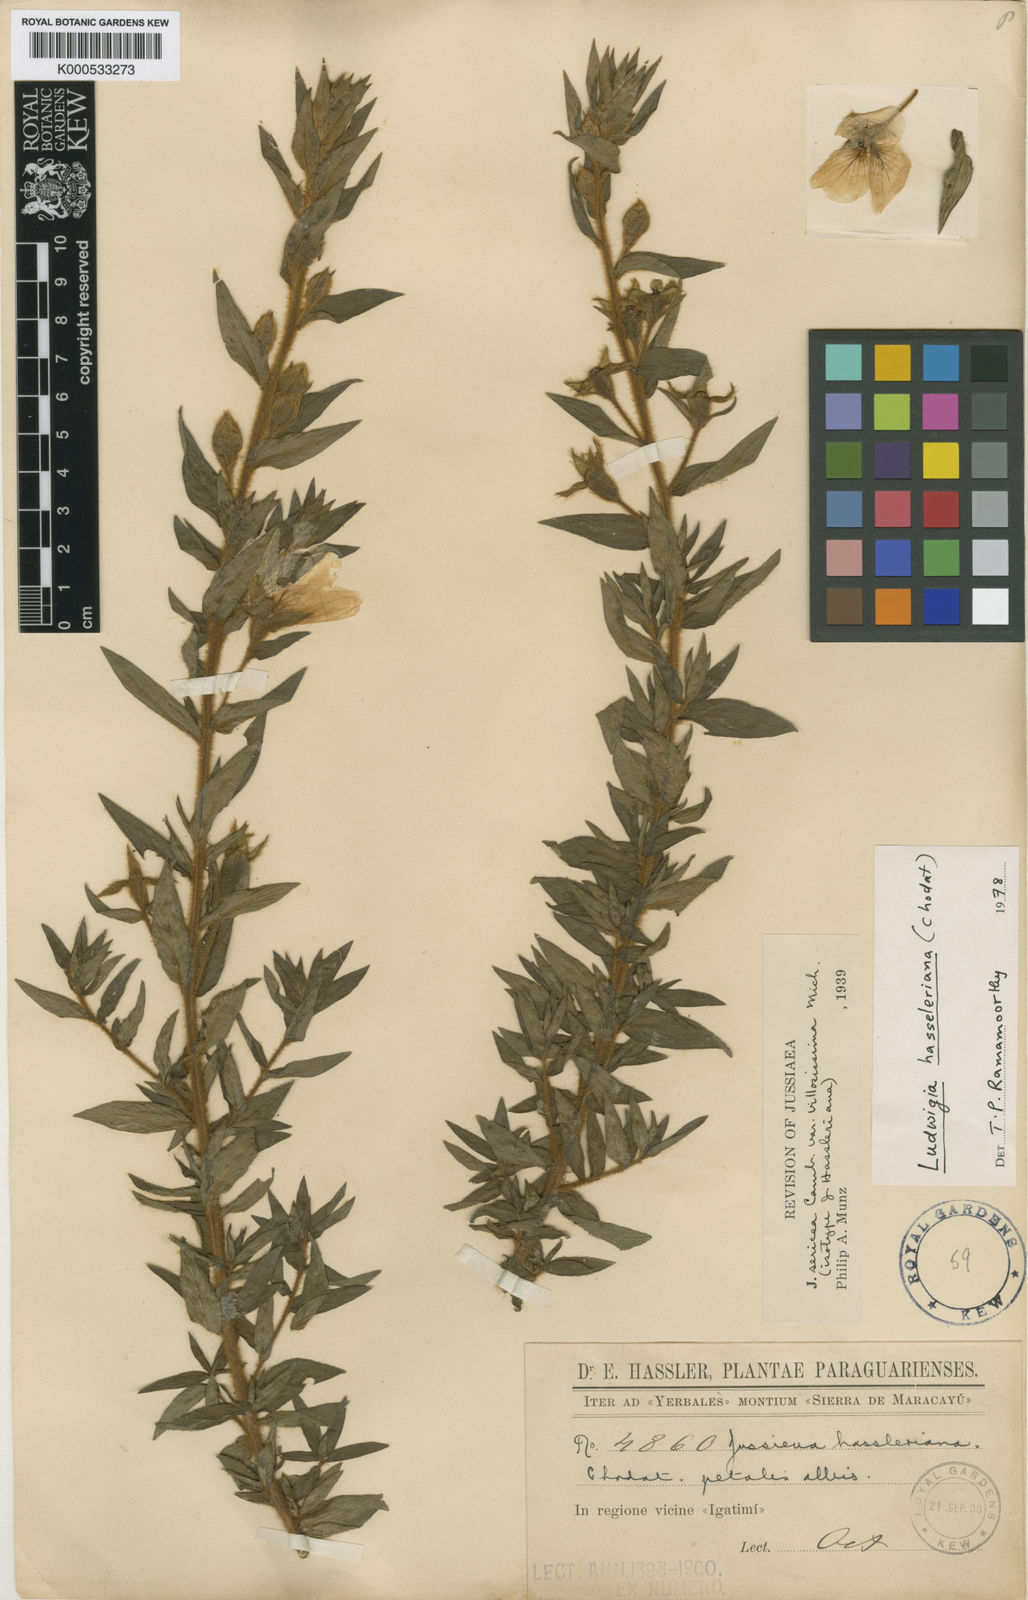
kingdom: Plantae
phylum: Tracheophyta
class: Magnoliopsida
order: Myrtales
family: Onagraceae
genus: Ludwigia
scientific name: Ludwigia hassleriana
